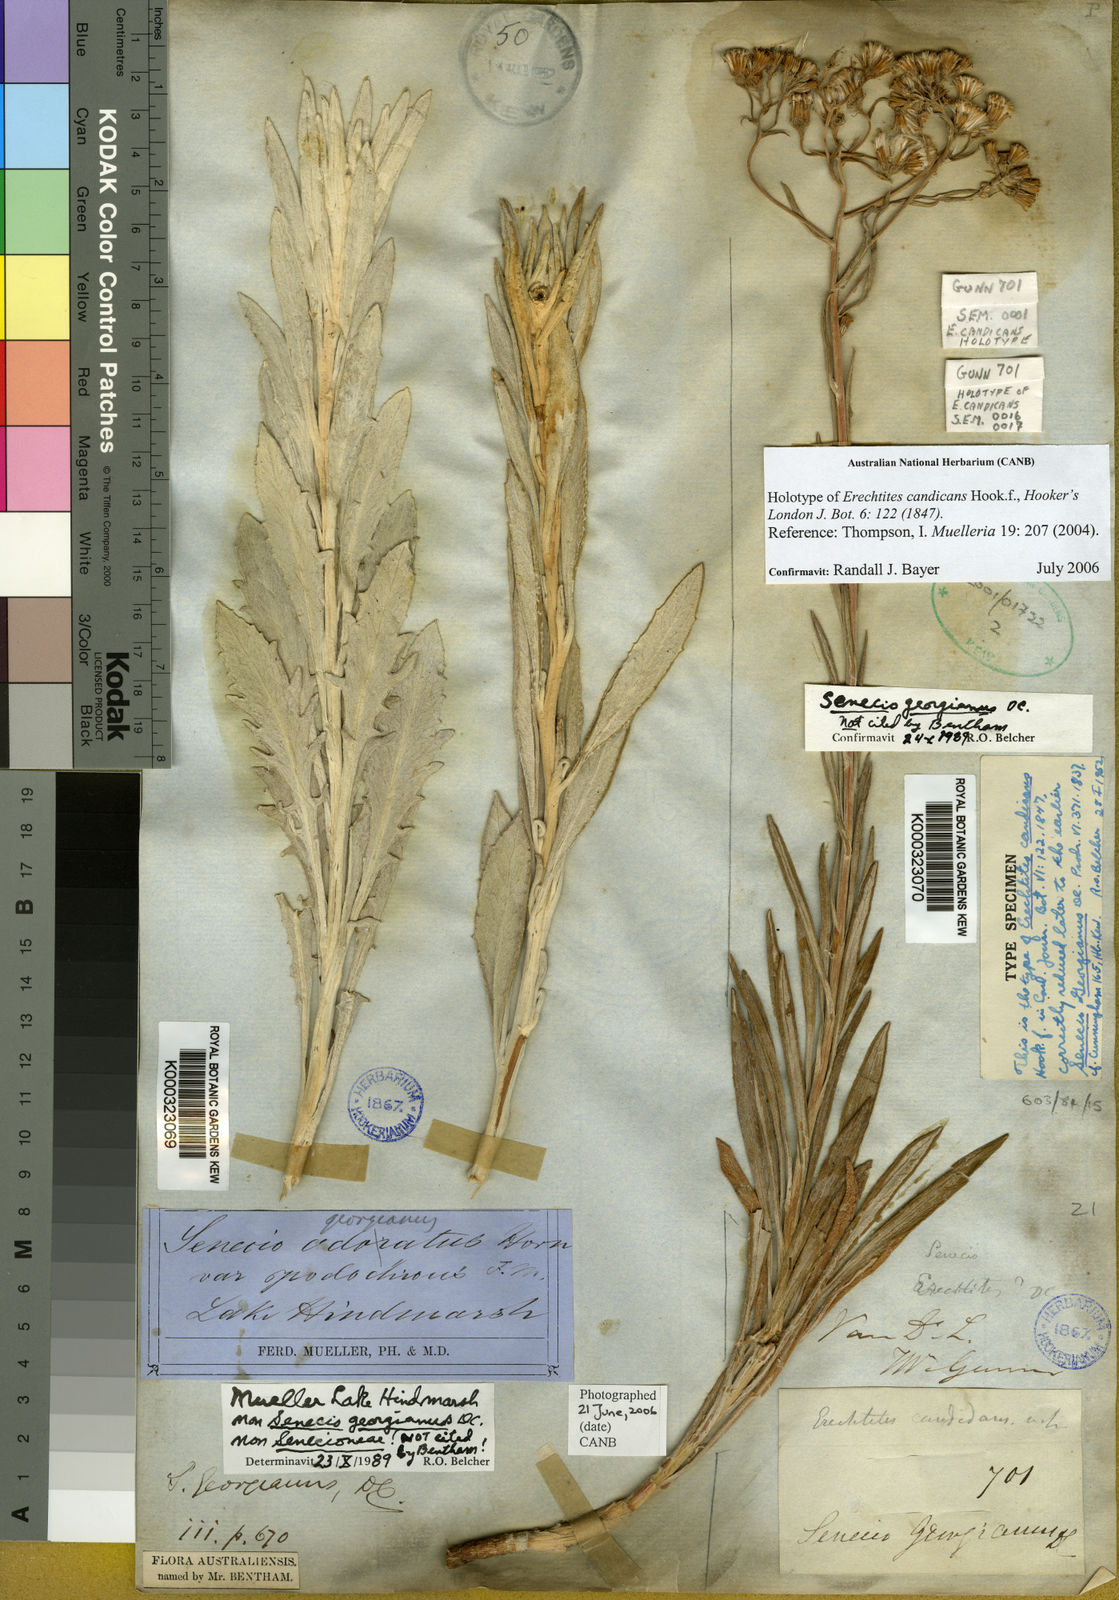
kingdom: Plantae
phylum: Tracheophyta
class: Magnoliopsida
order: Asterales
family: Asteraceae
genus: Senecio
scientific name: Senecio georgianus
